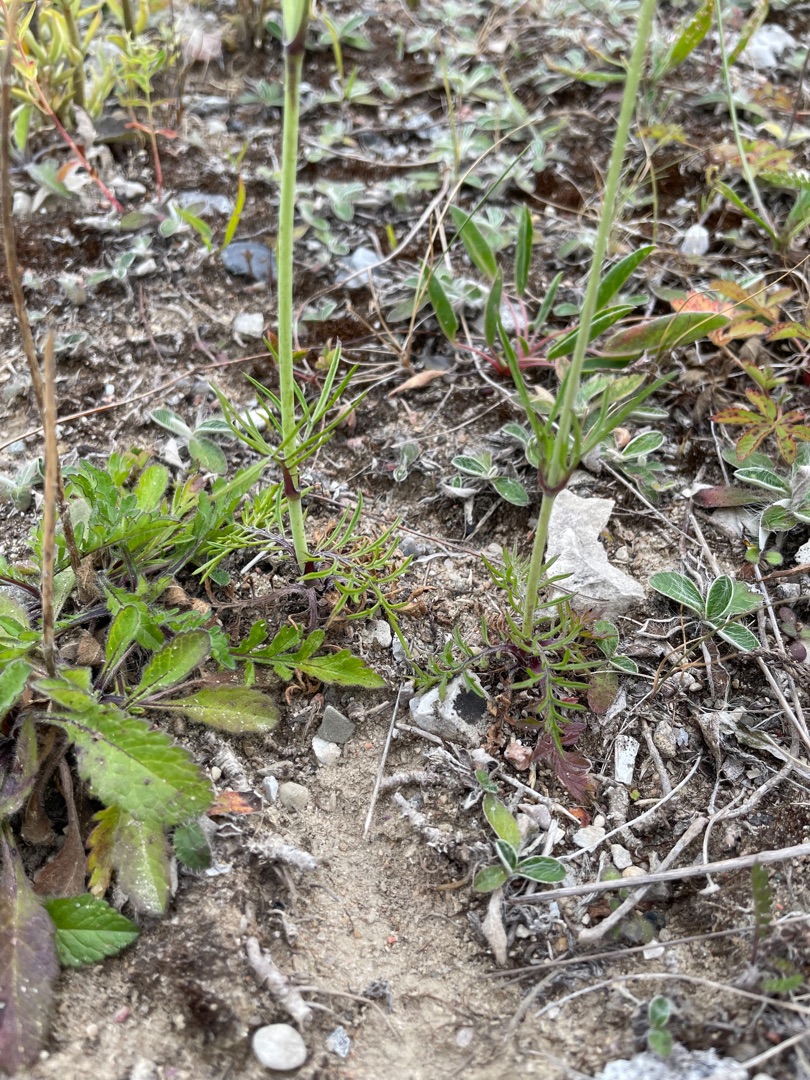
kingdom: Plantae
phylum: Tracheophyta
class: Magnoliopsida
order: Dipsacales
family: Caprifoliaceae
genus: Scabiosa
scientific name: Scabiosa columbaria
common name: Due-skabiose
